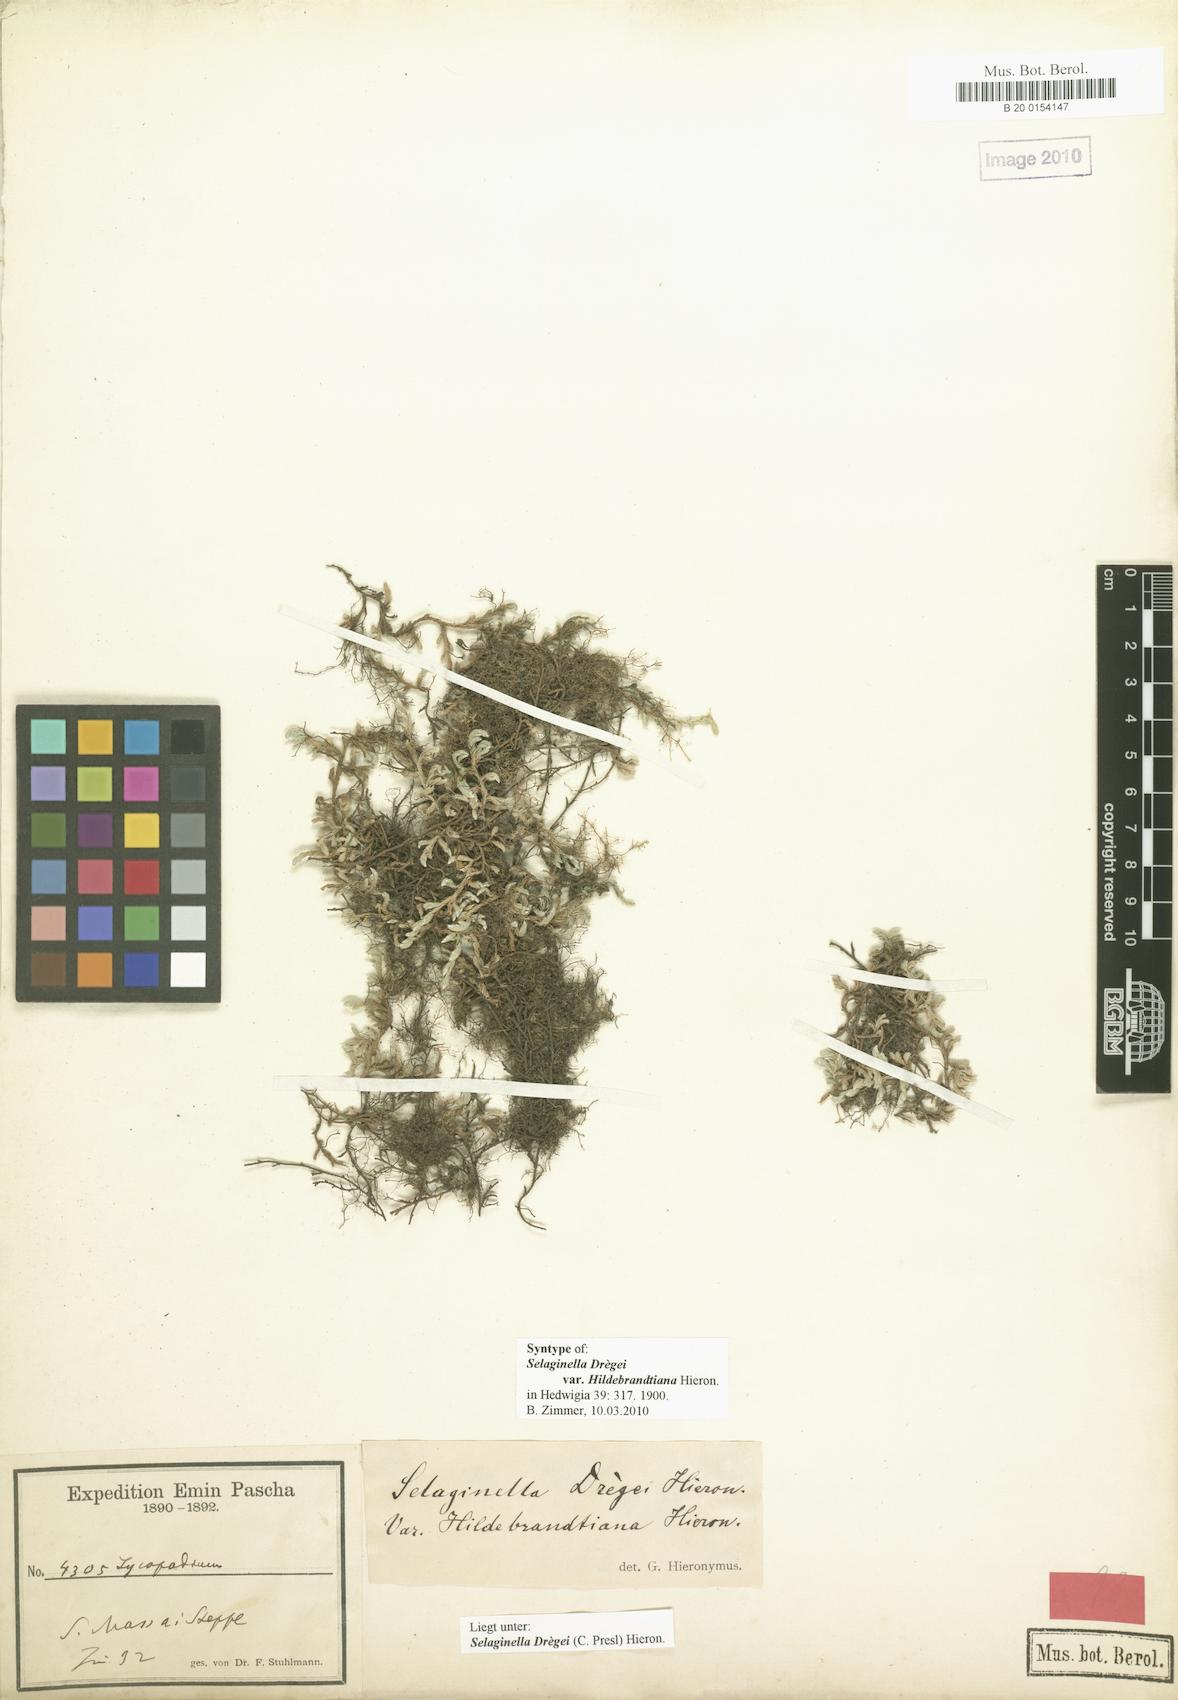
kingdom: Plantae
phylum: Tracheophyta
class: Lycopodiopsida
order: Selaginellales
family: Selaginellaceae
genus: Selaginella
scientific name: Selaginella dregei
